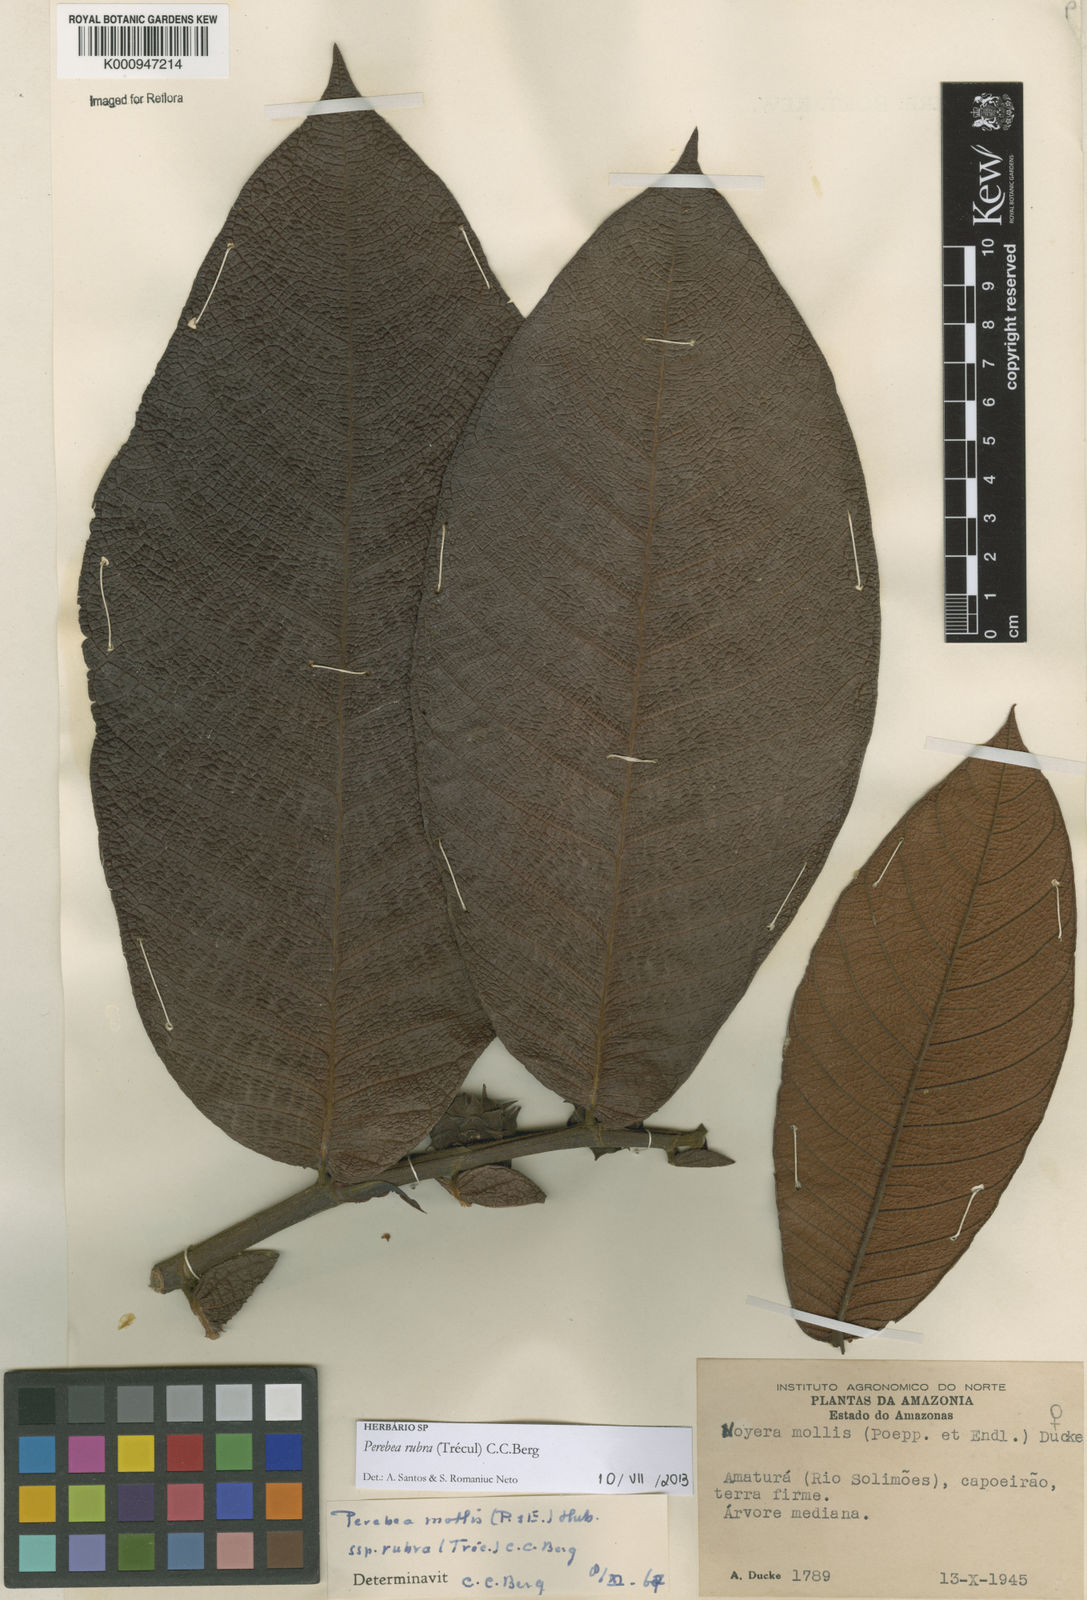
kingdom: Plantae
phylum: Tracheophyta
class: Magnoliopsida
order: Rosales
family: Moraceae
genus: Perebea
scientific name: Perebea
